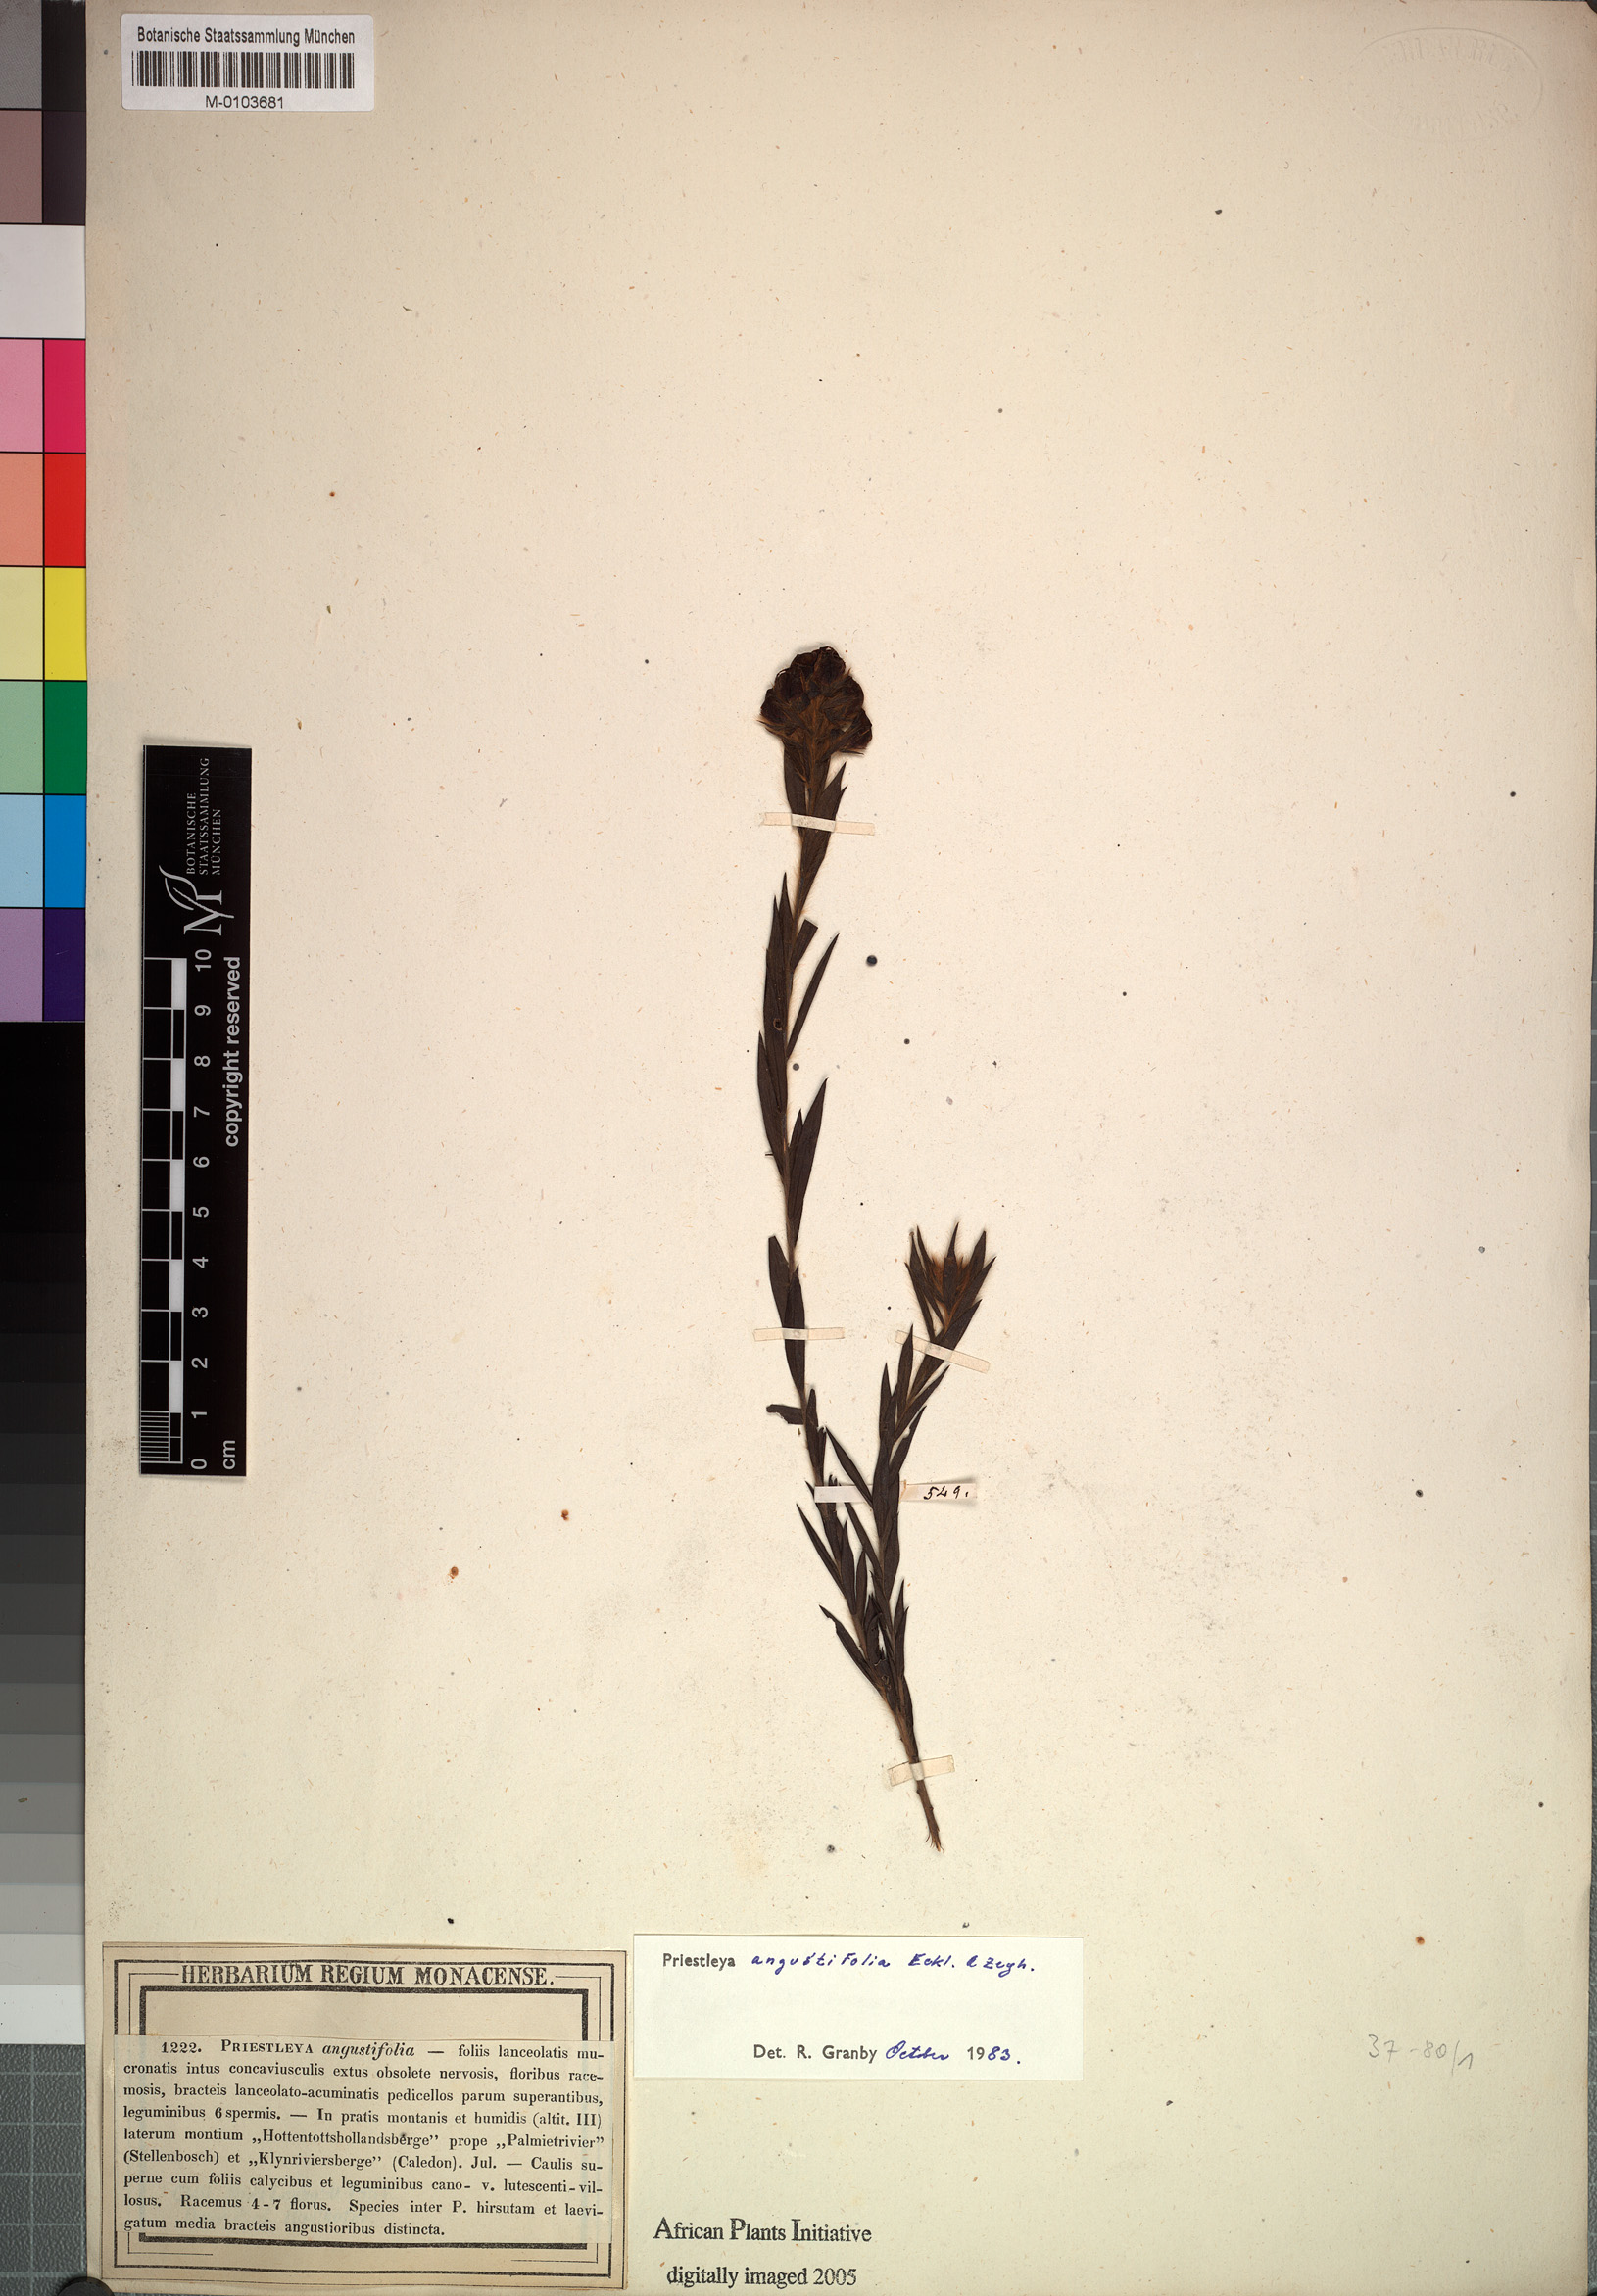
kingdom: Plantae
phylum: Tracheophyta
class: Magnoliopsida
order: Fabales
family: Fabaceae
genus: Liparia
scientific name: Liparia angustifolia
